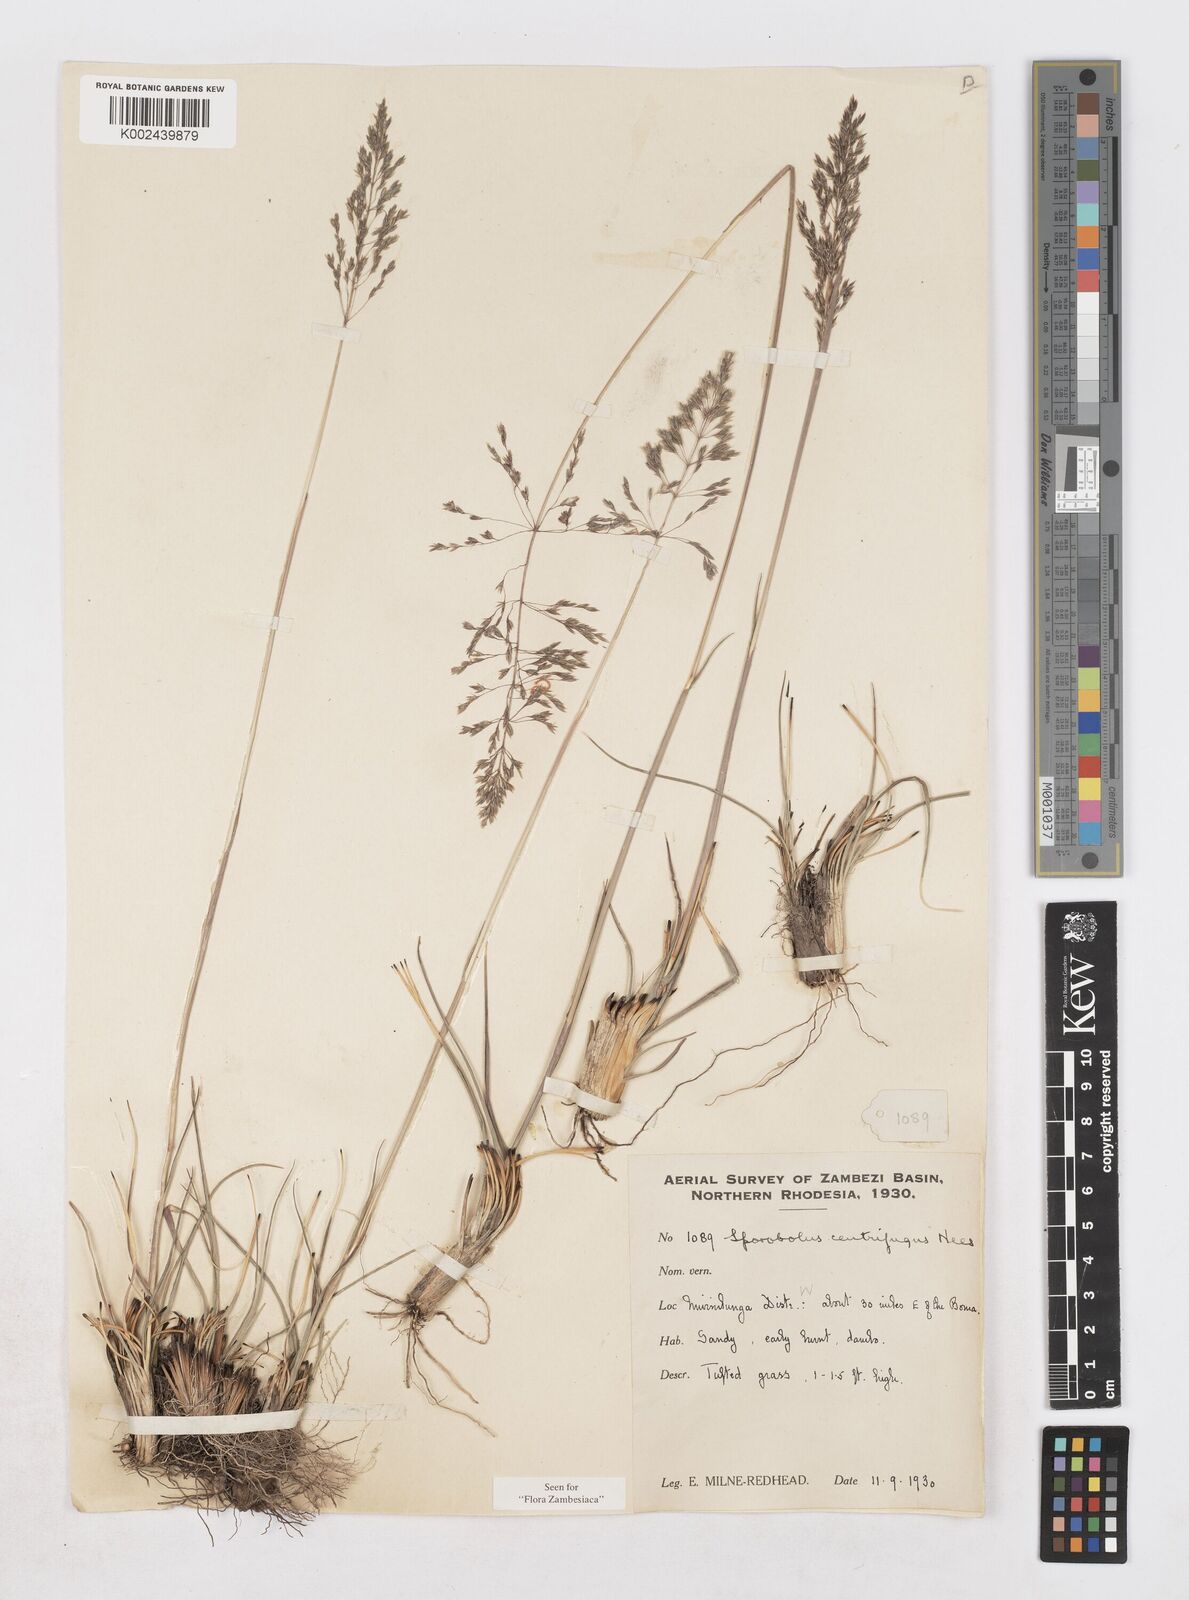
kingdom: Plantae
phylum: Tracheophyta
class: Liliopsida
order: Poales
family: Poaceae
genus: Sporobolus
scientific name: Sporobolus centrifugus
